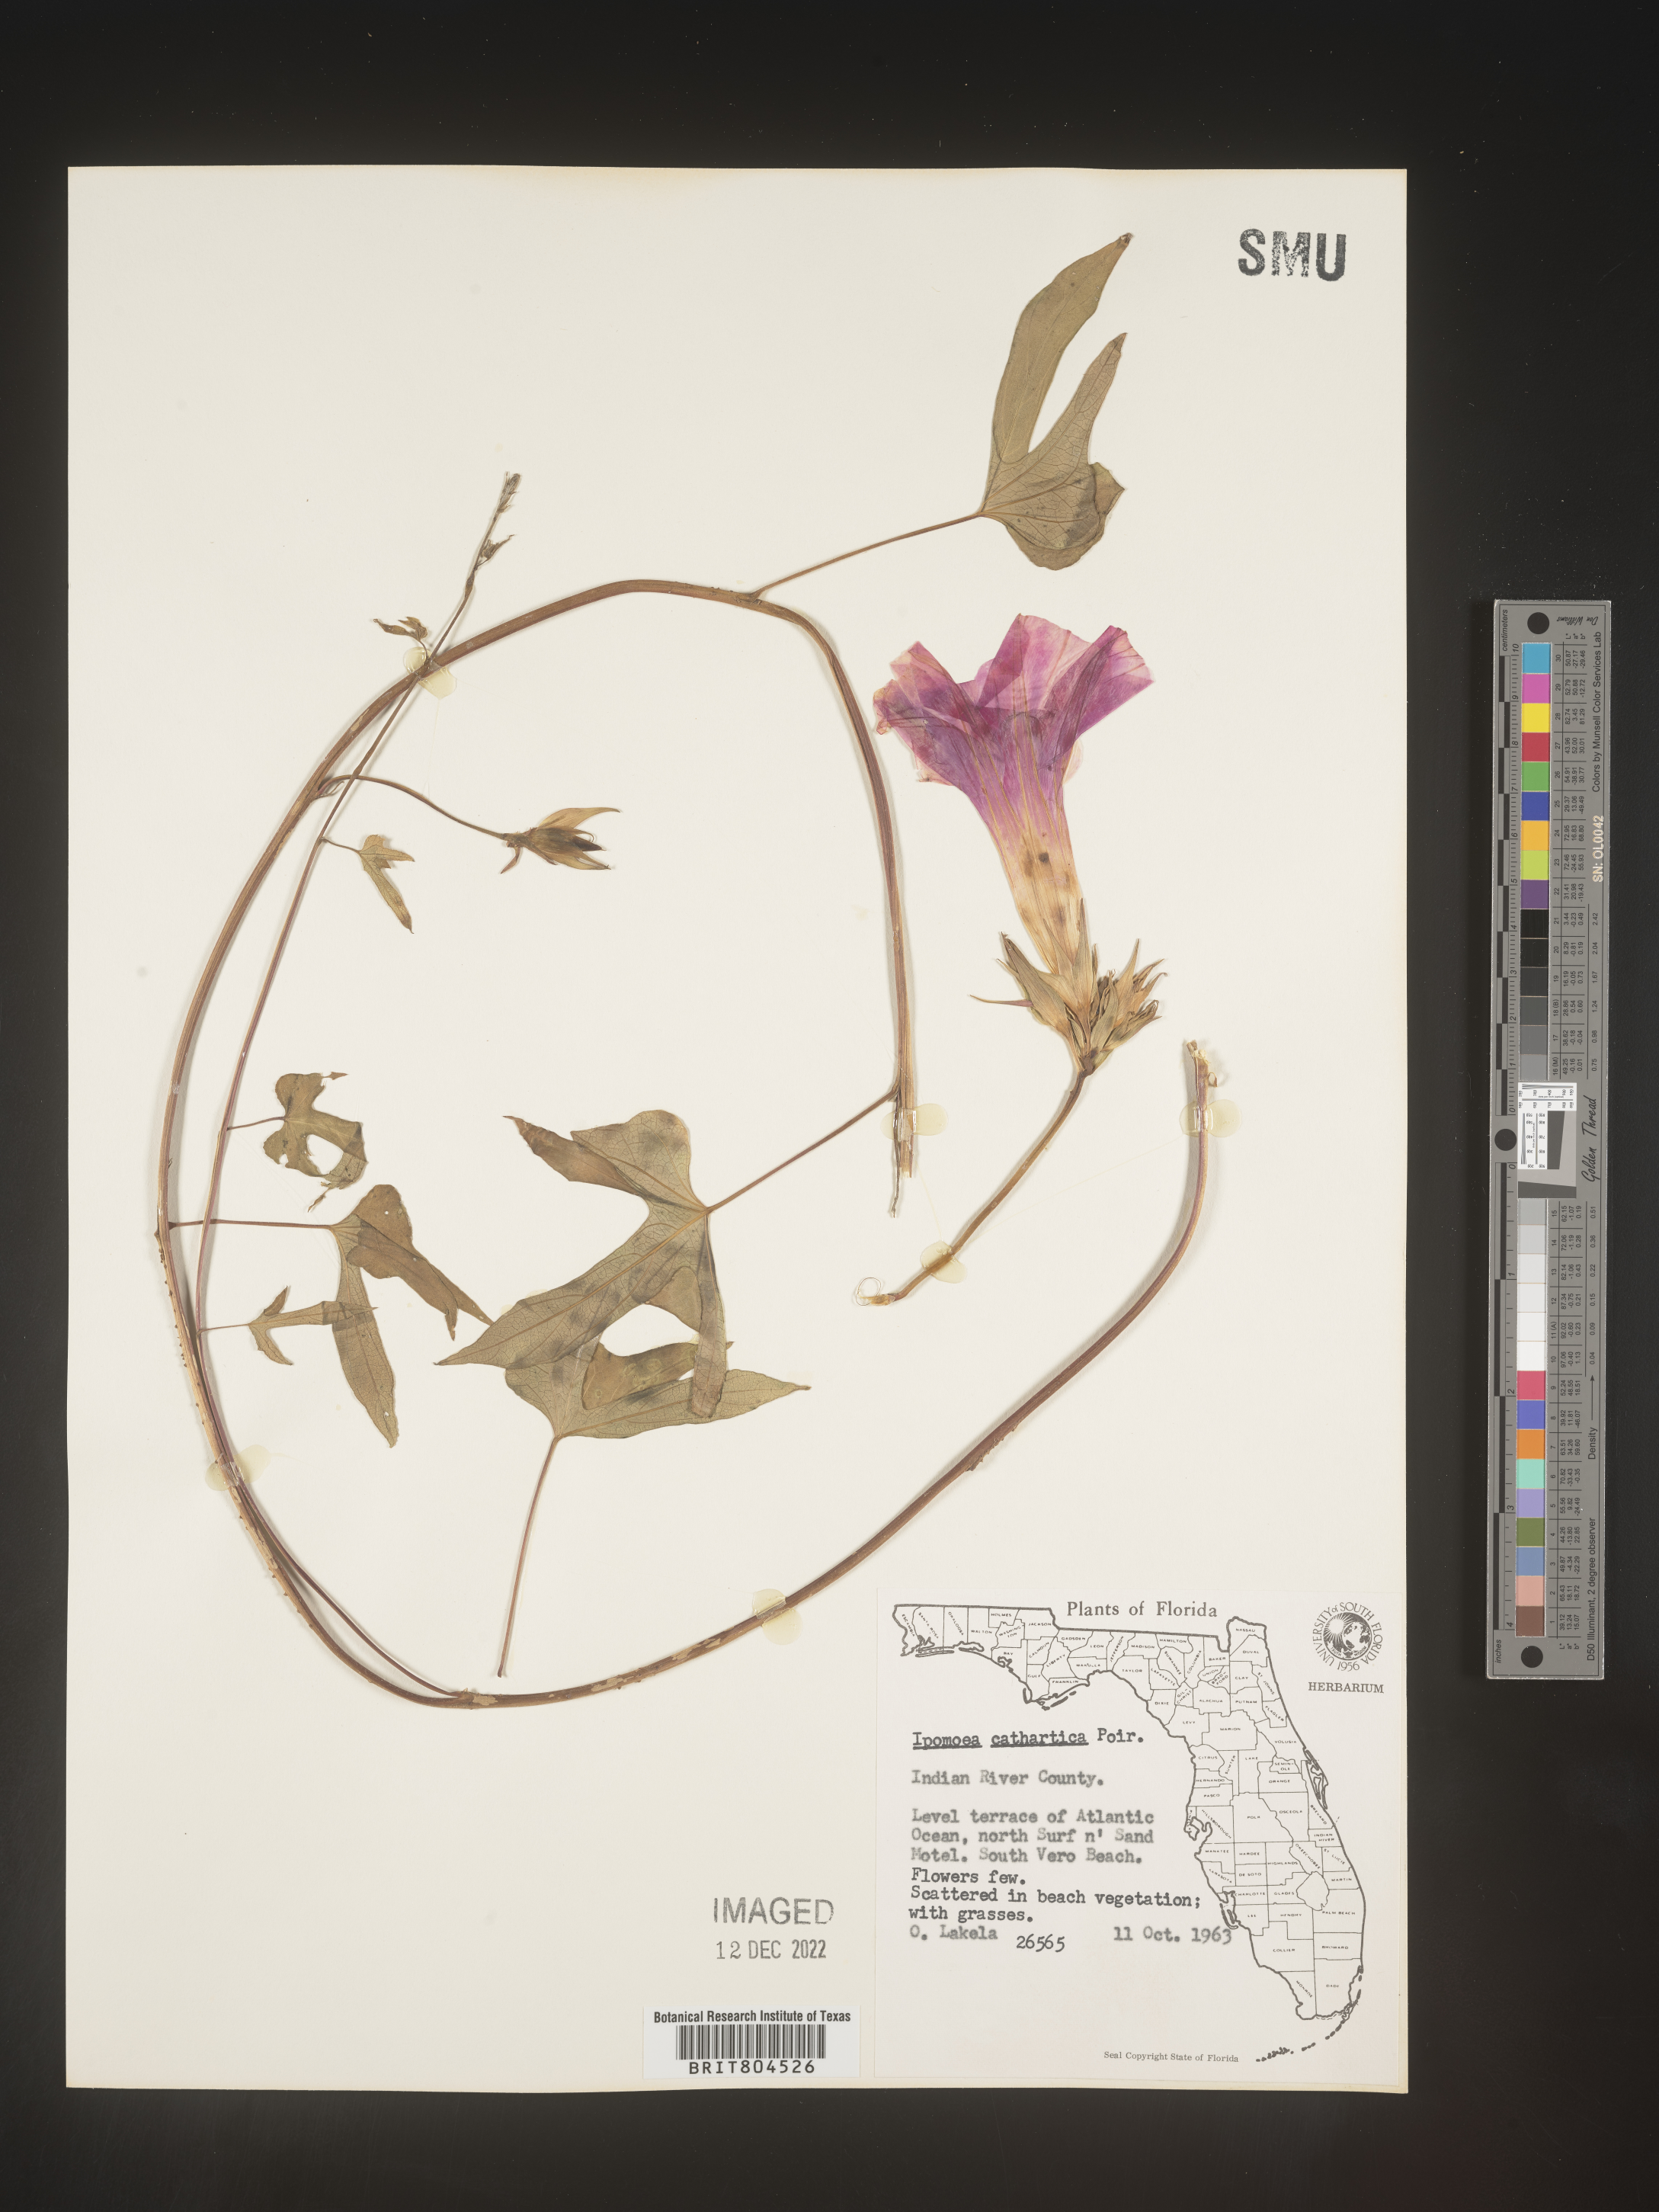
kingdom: Plantae
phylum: Tracheophyta
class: Magnoliopsida
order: Solanales
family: Convolvulaceae
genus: Ipomoea
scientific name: Ipomoea coccinea
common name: Red morning-glory
